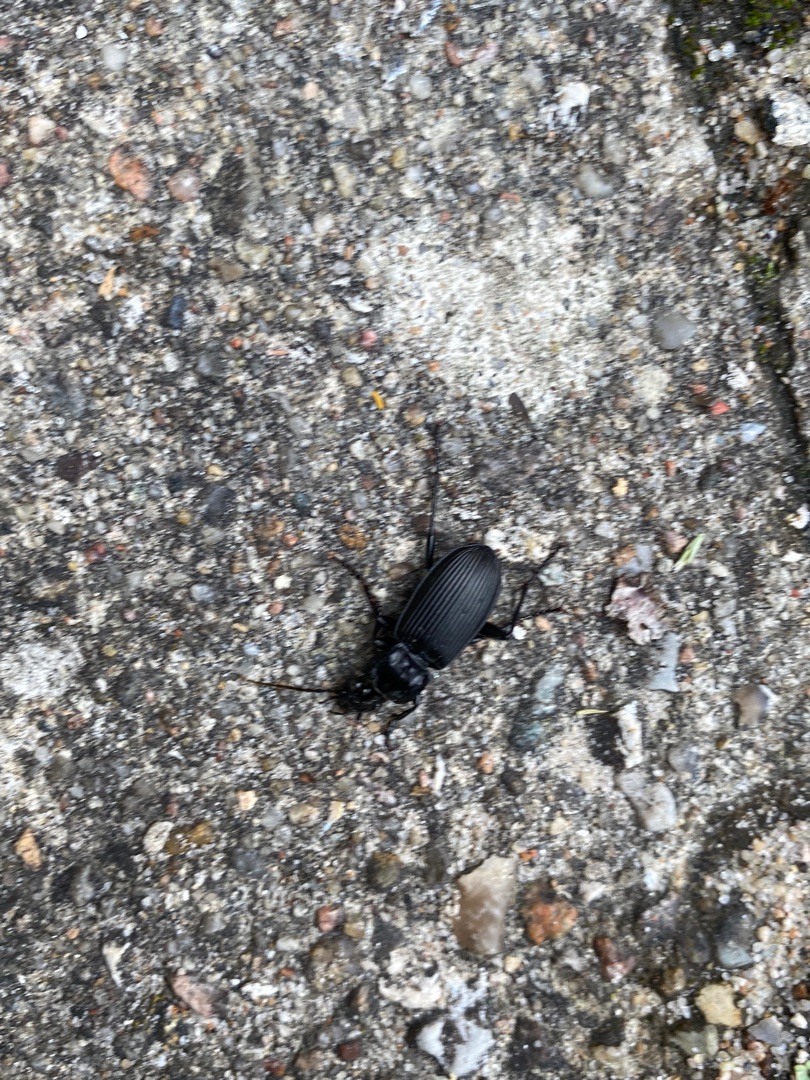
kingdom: Animalia
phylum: Arthropoda
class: Insecta
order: Coleoptera
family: Carabidae
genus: Pterostichus
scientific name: Pterostichus niger
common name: Skovjordløber
